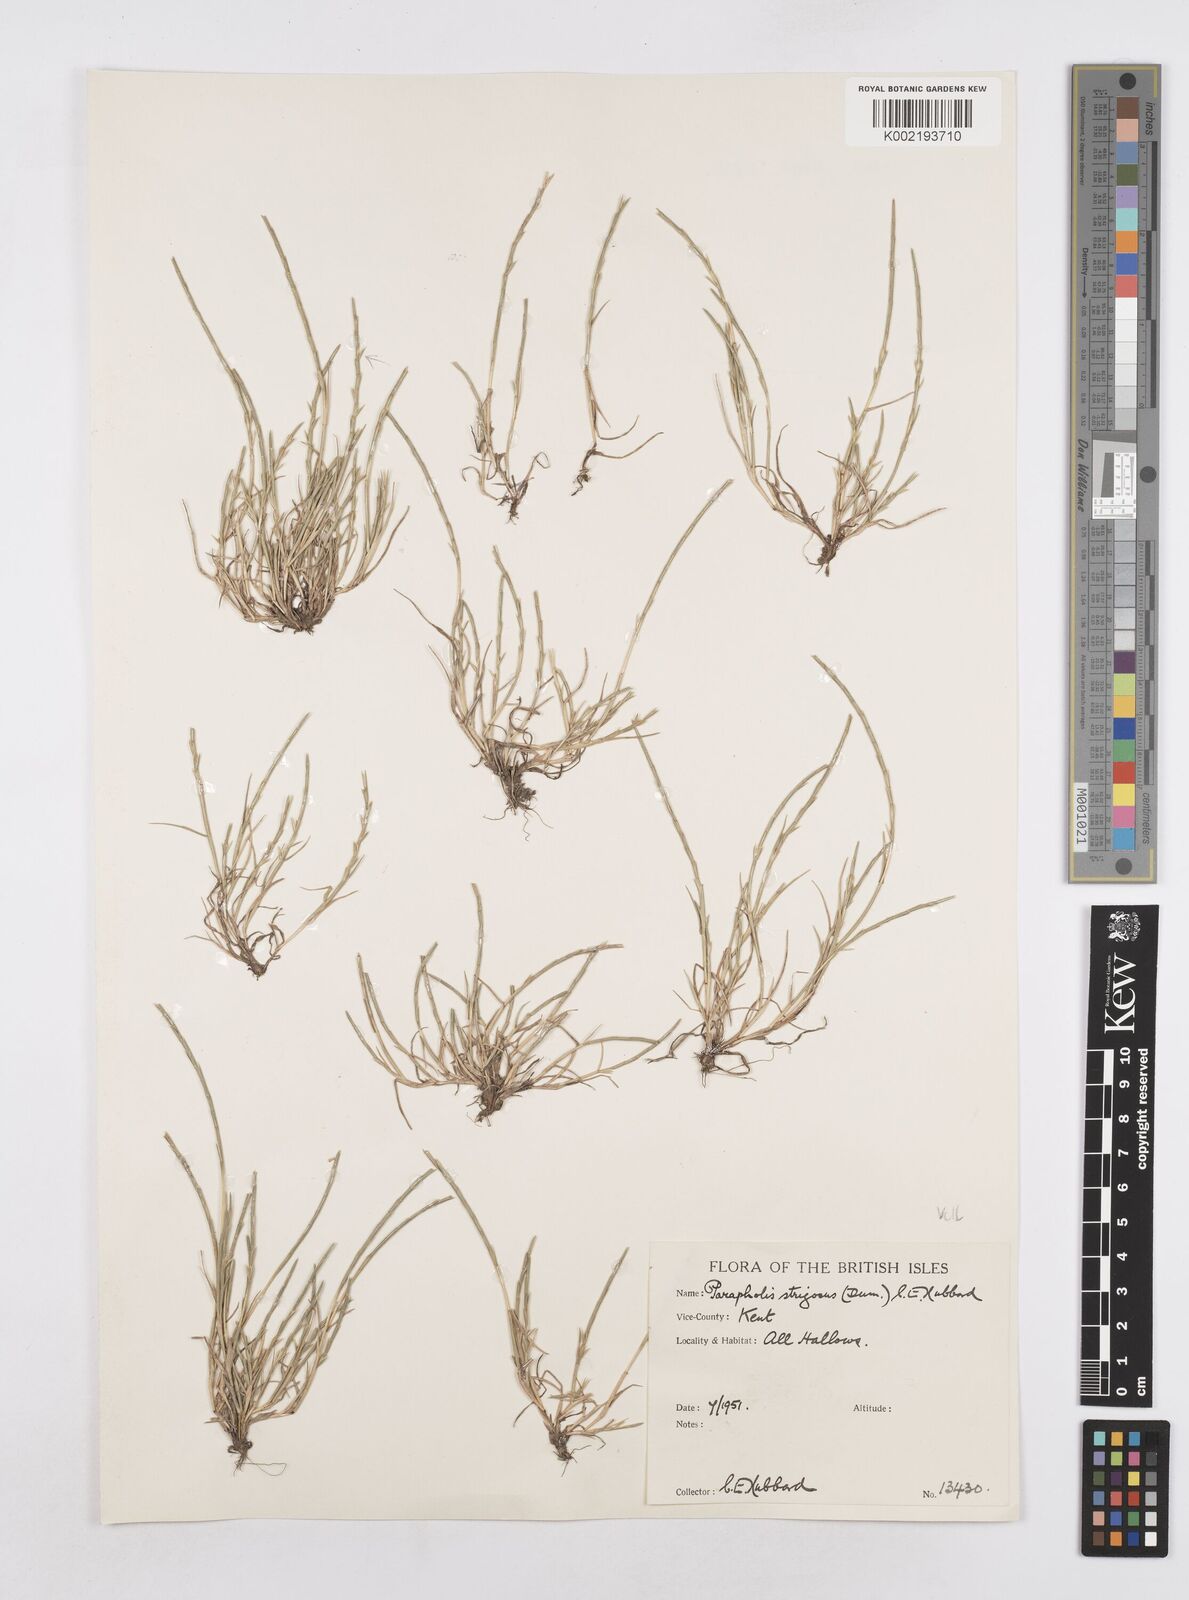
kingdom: Plantae
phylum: Tracheophyta
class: Liliopsida
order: Poales
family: Poaceae
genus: Parapholis
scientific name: Parapholis strigosa
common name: Hard-grass
